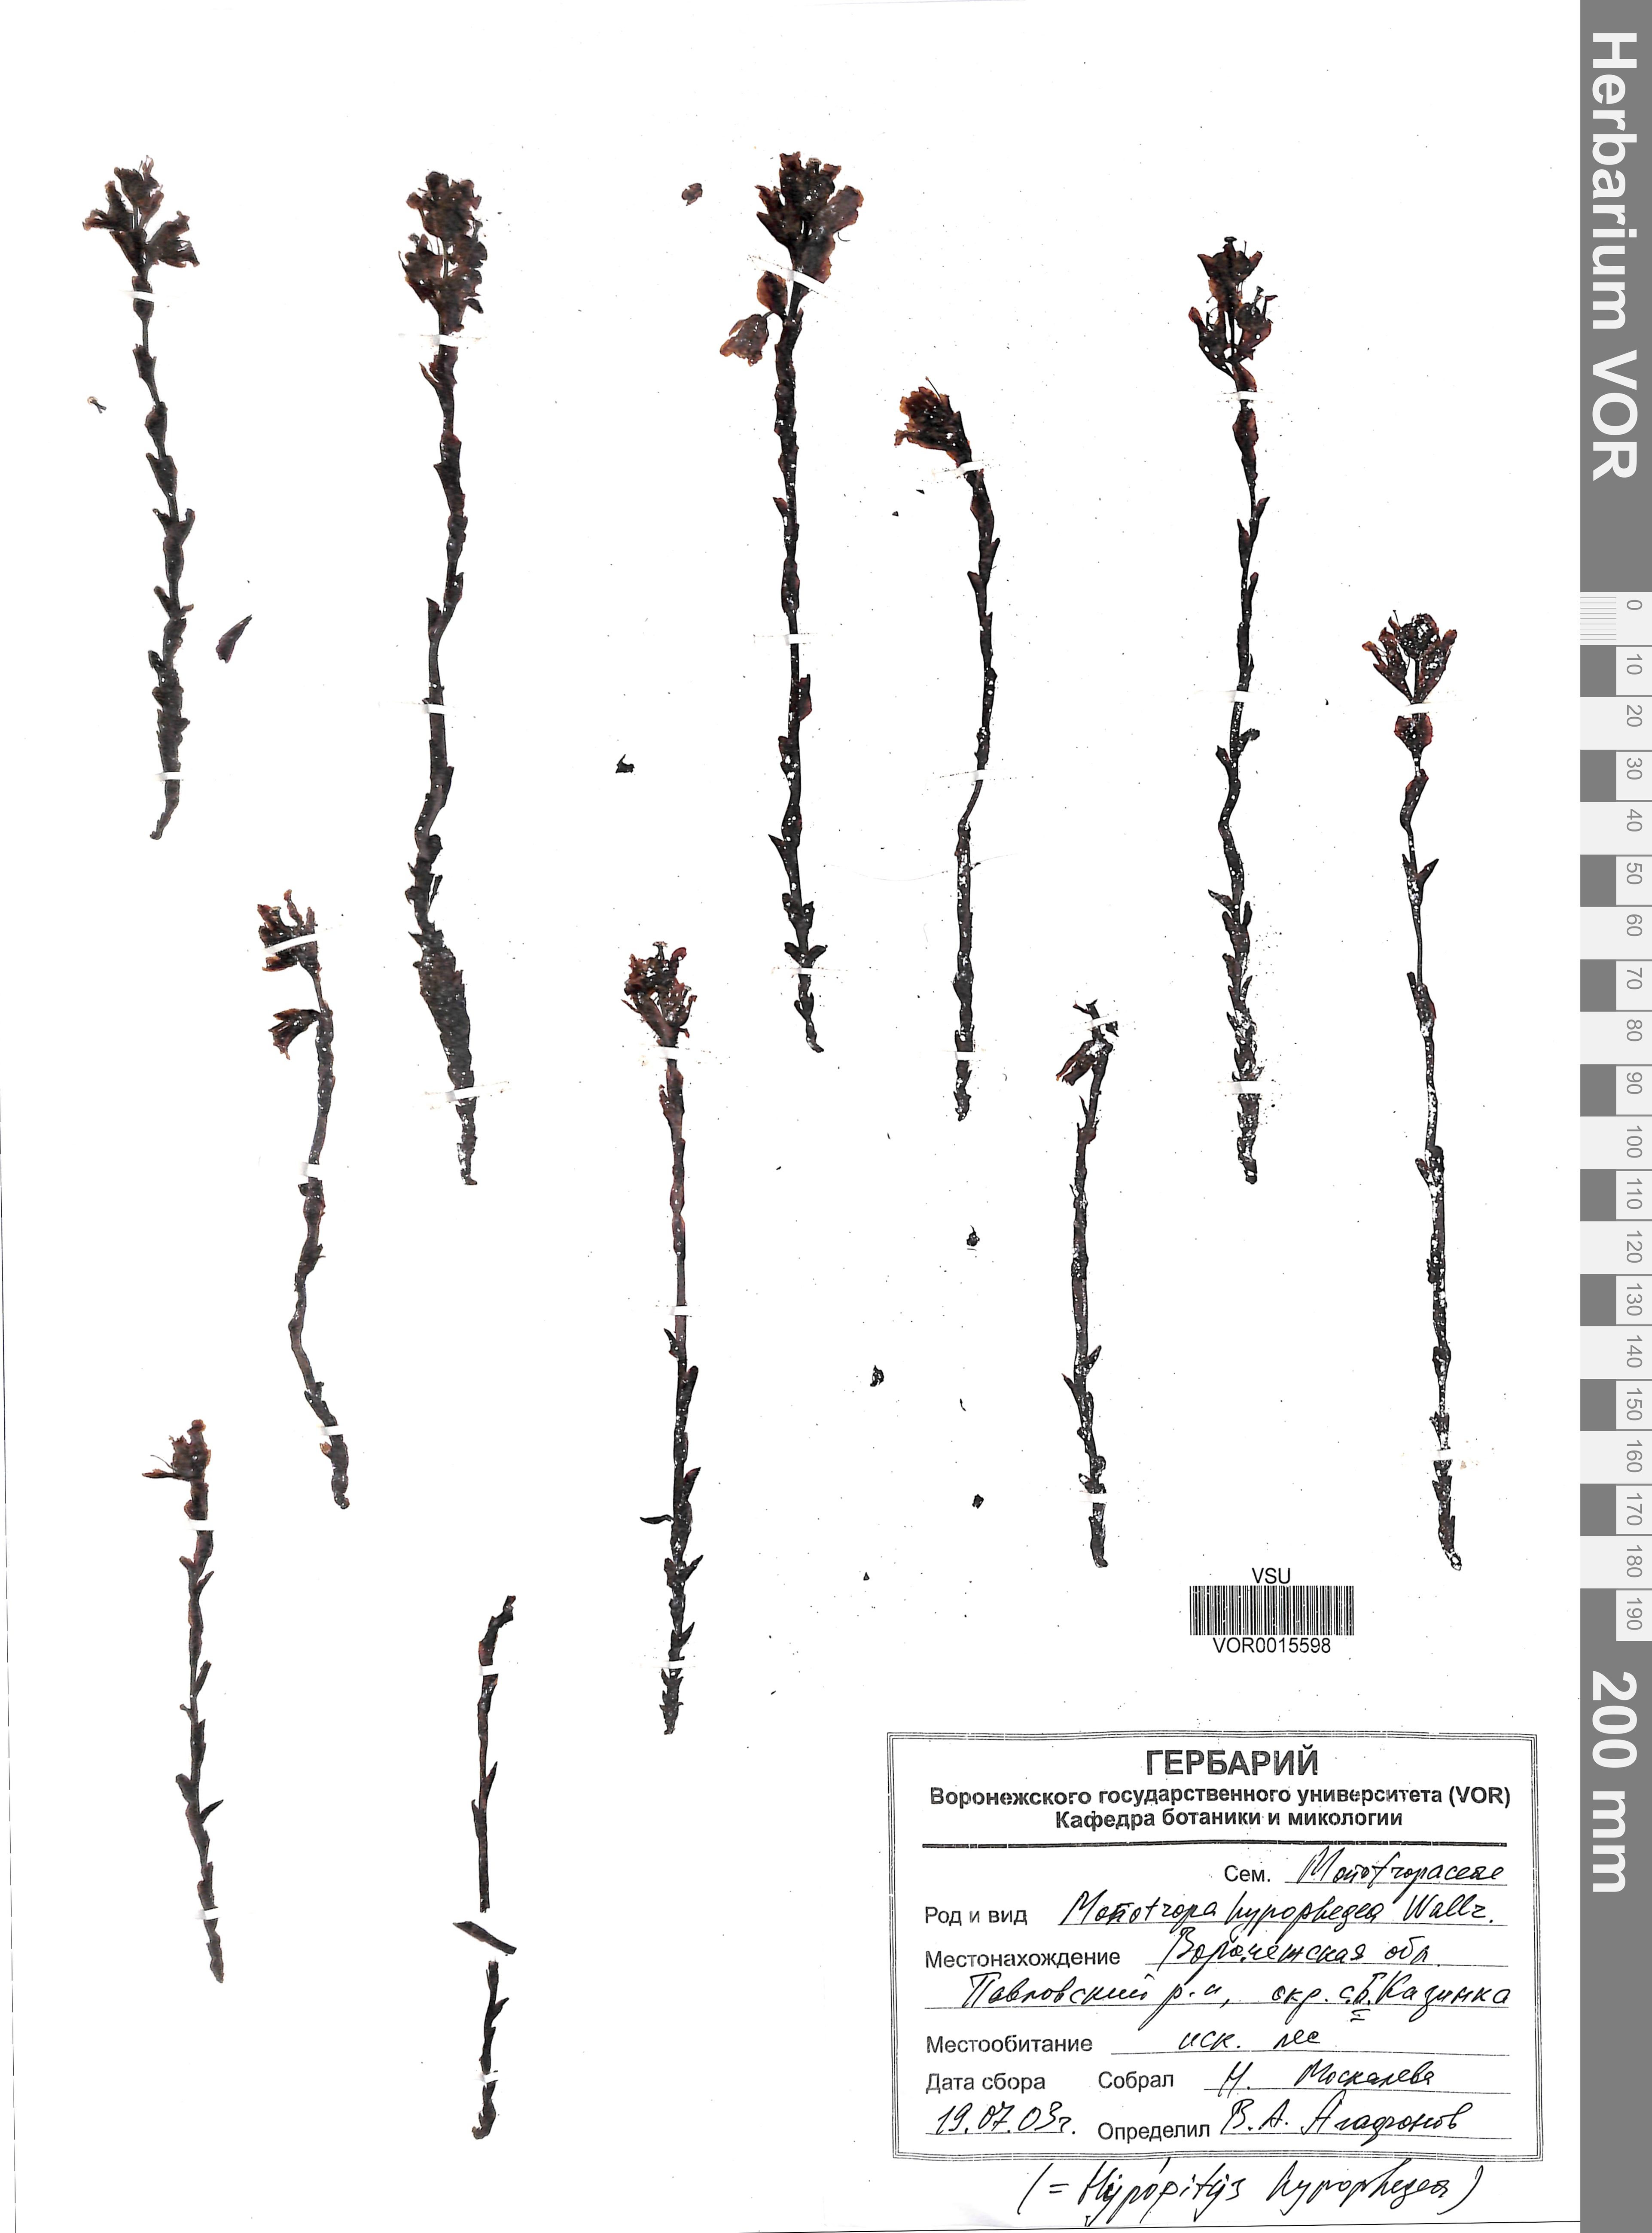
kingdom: Plantae
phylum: Tracheophyta
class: Magnoliopsida
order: Ericales
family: Ericaceae
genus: Hypopitys
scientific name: Hypopitys hypophegea
